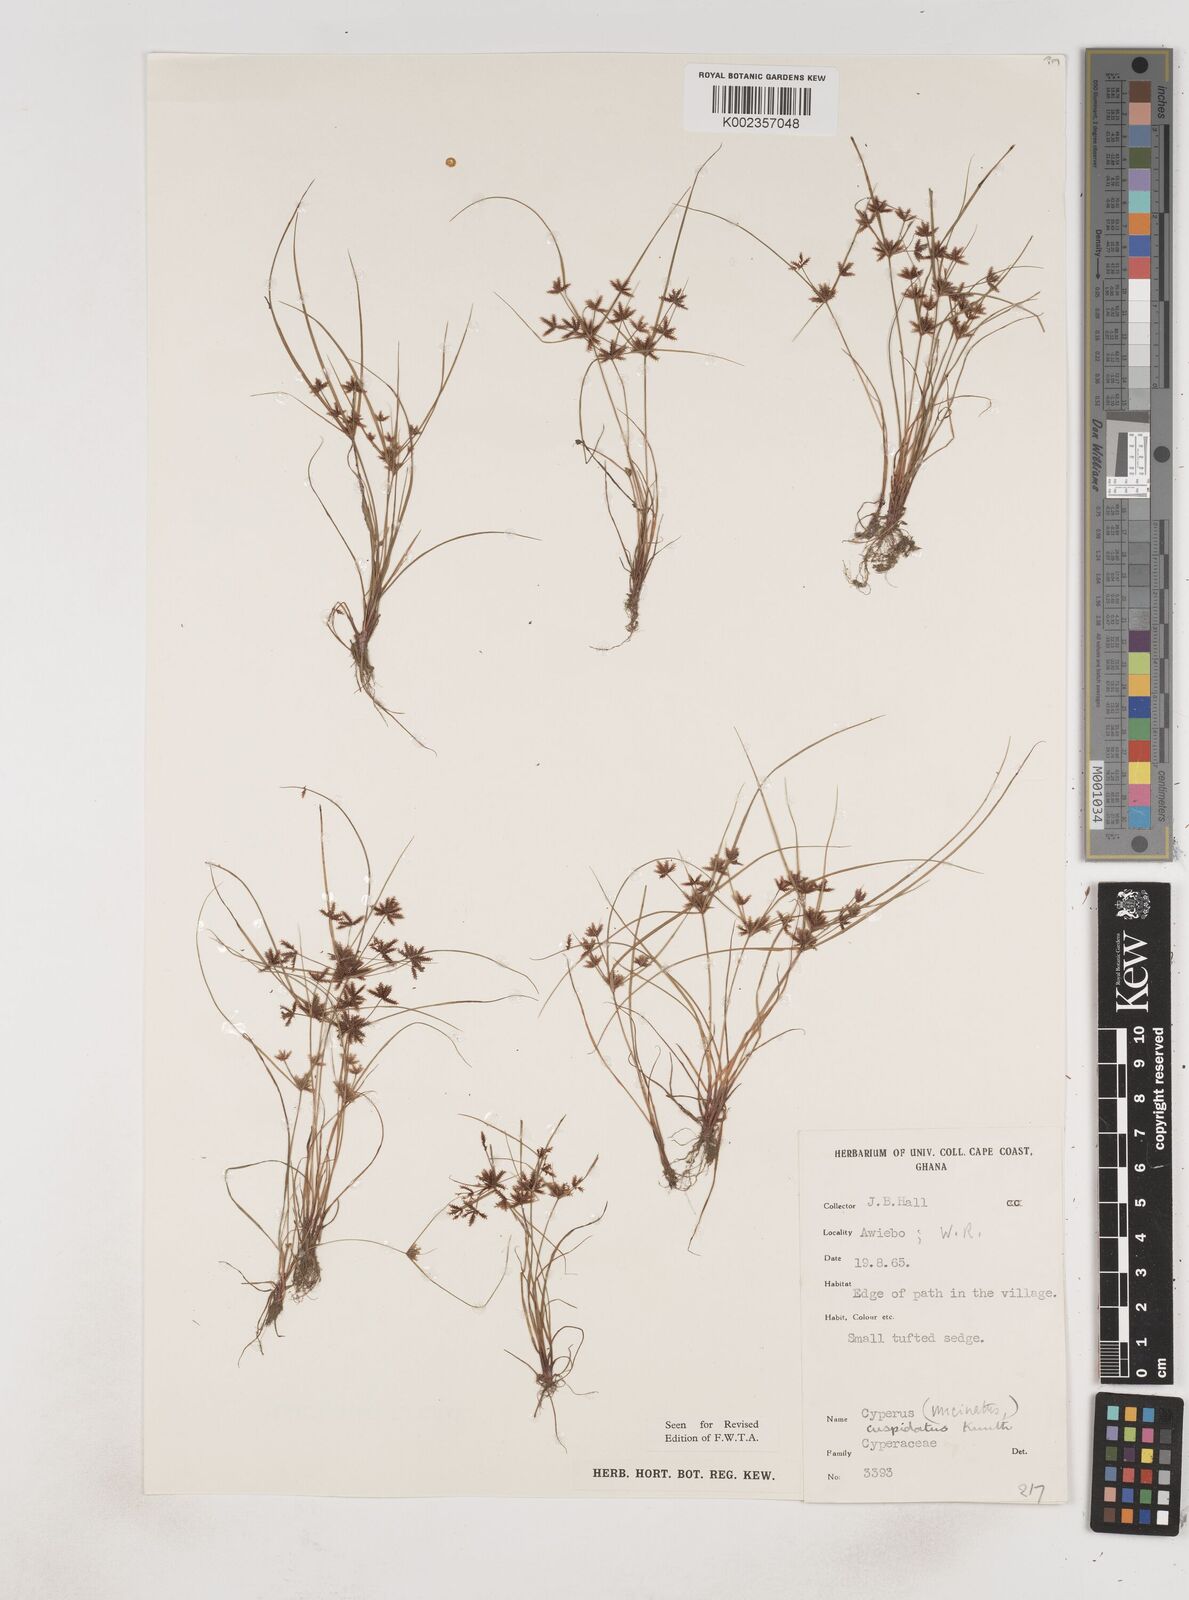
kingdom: Plantae
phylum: Tracheophyta
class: Liliopsida
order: Poales
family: Cyperaceae
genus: Cyperus
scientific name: Cyperus
